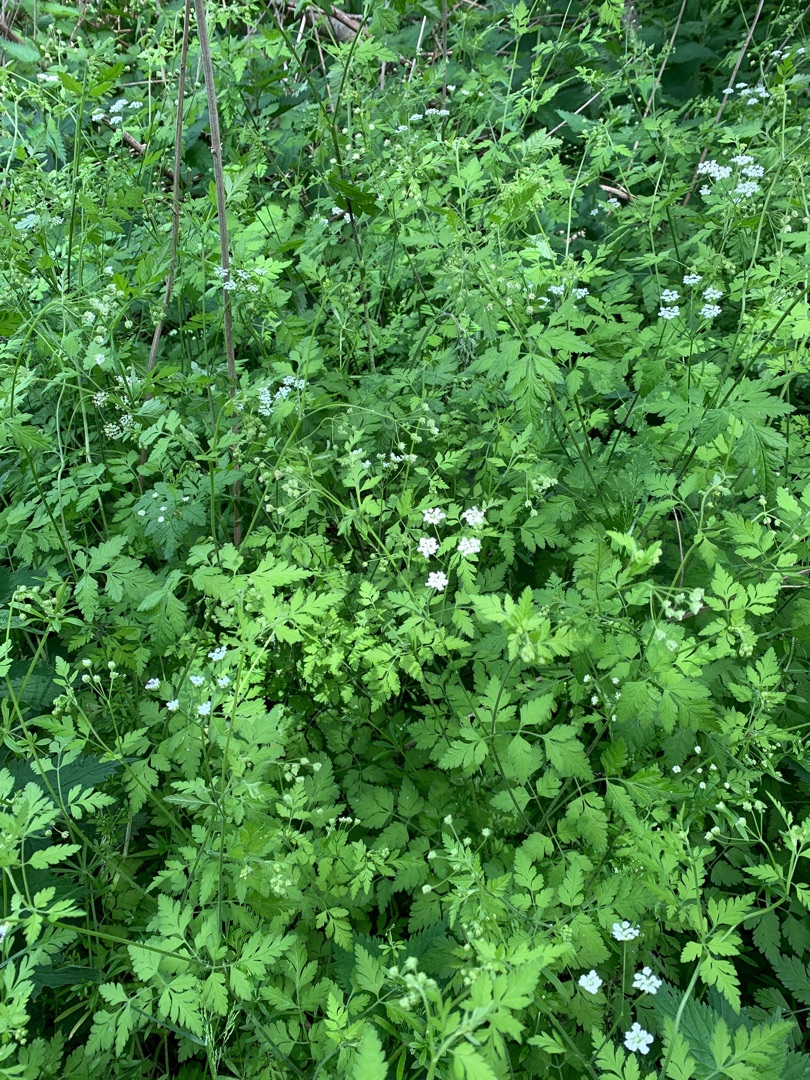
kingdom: Plantae
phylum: Tracheophyta
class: Magnoliopsida
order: Apiales
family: Apiaceae
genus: Chaerophyllum
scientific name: Chaerophyllum temulum
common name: Almindelig hulsvøb
